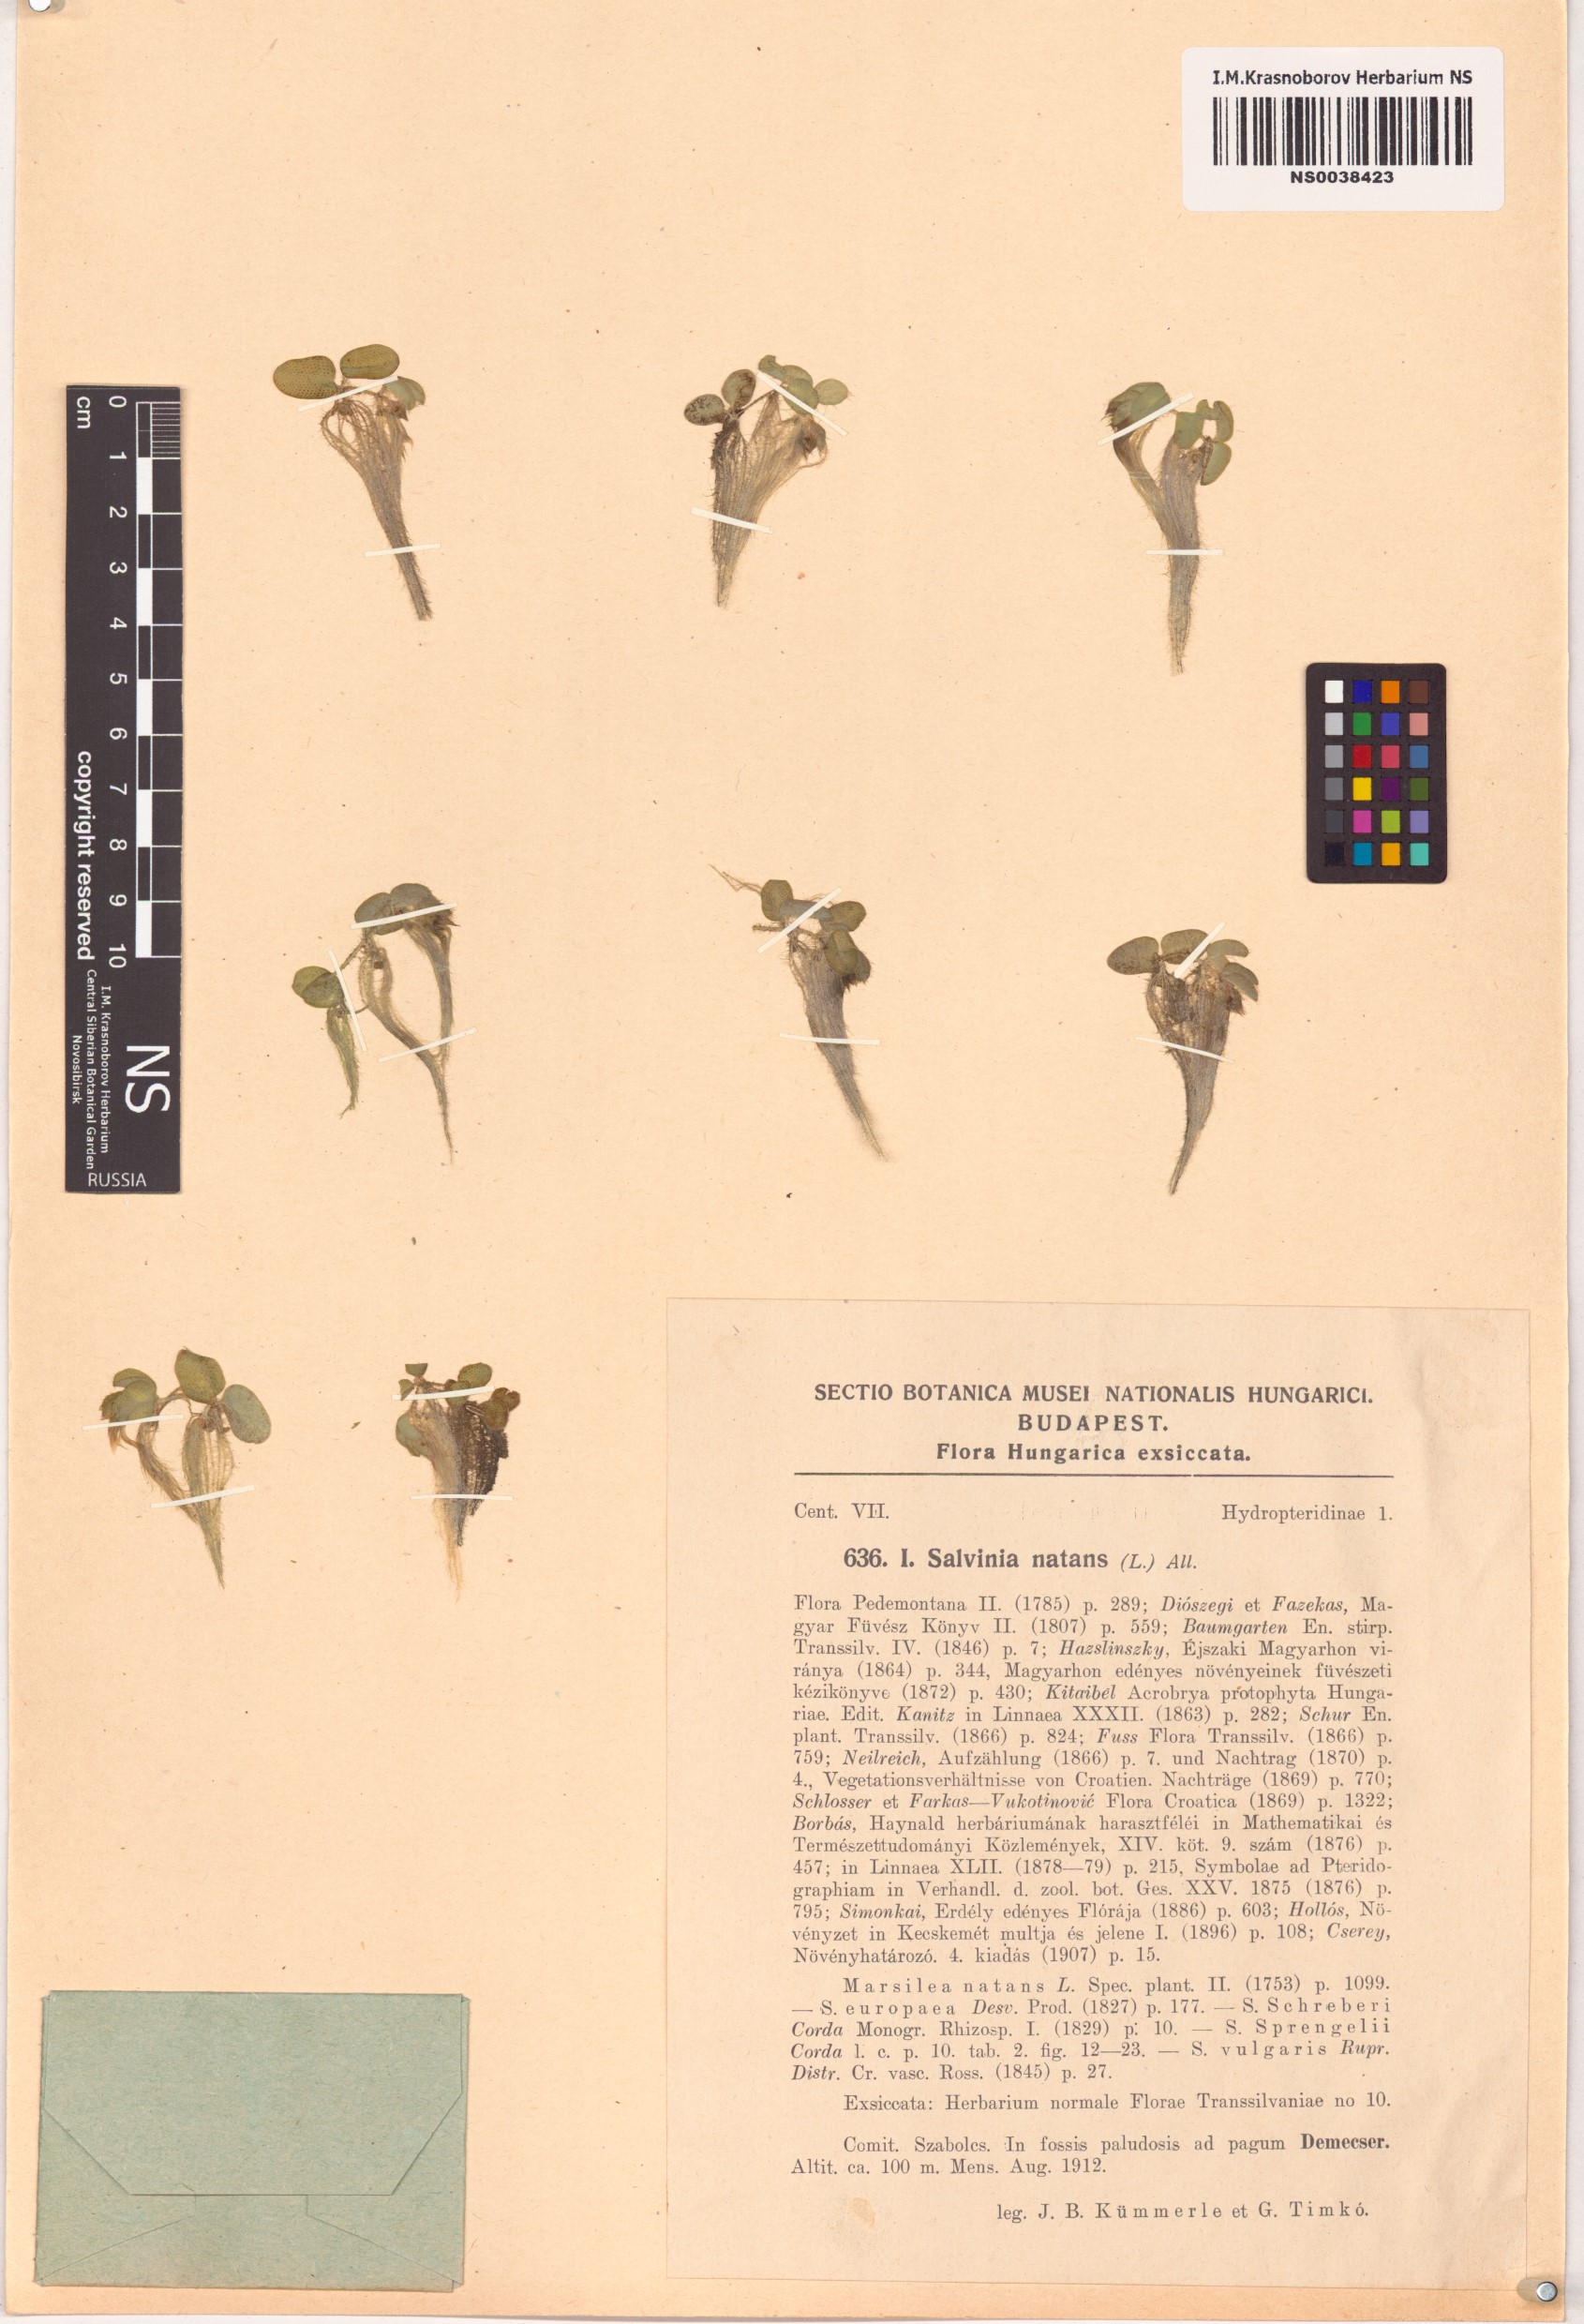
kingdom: Plantae
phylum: Tracheophyta
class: Polypodiopsida
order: Salviniales
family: Salviniaceae
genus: Salvinia
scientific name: Salvinia natans
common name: Floating fern
